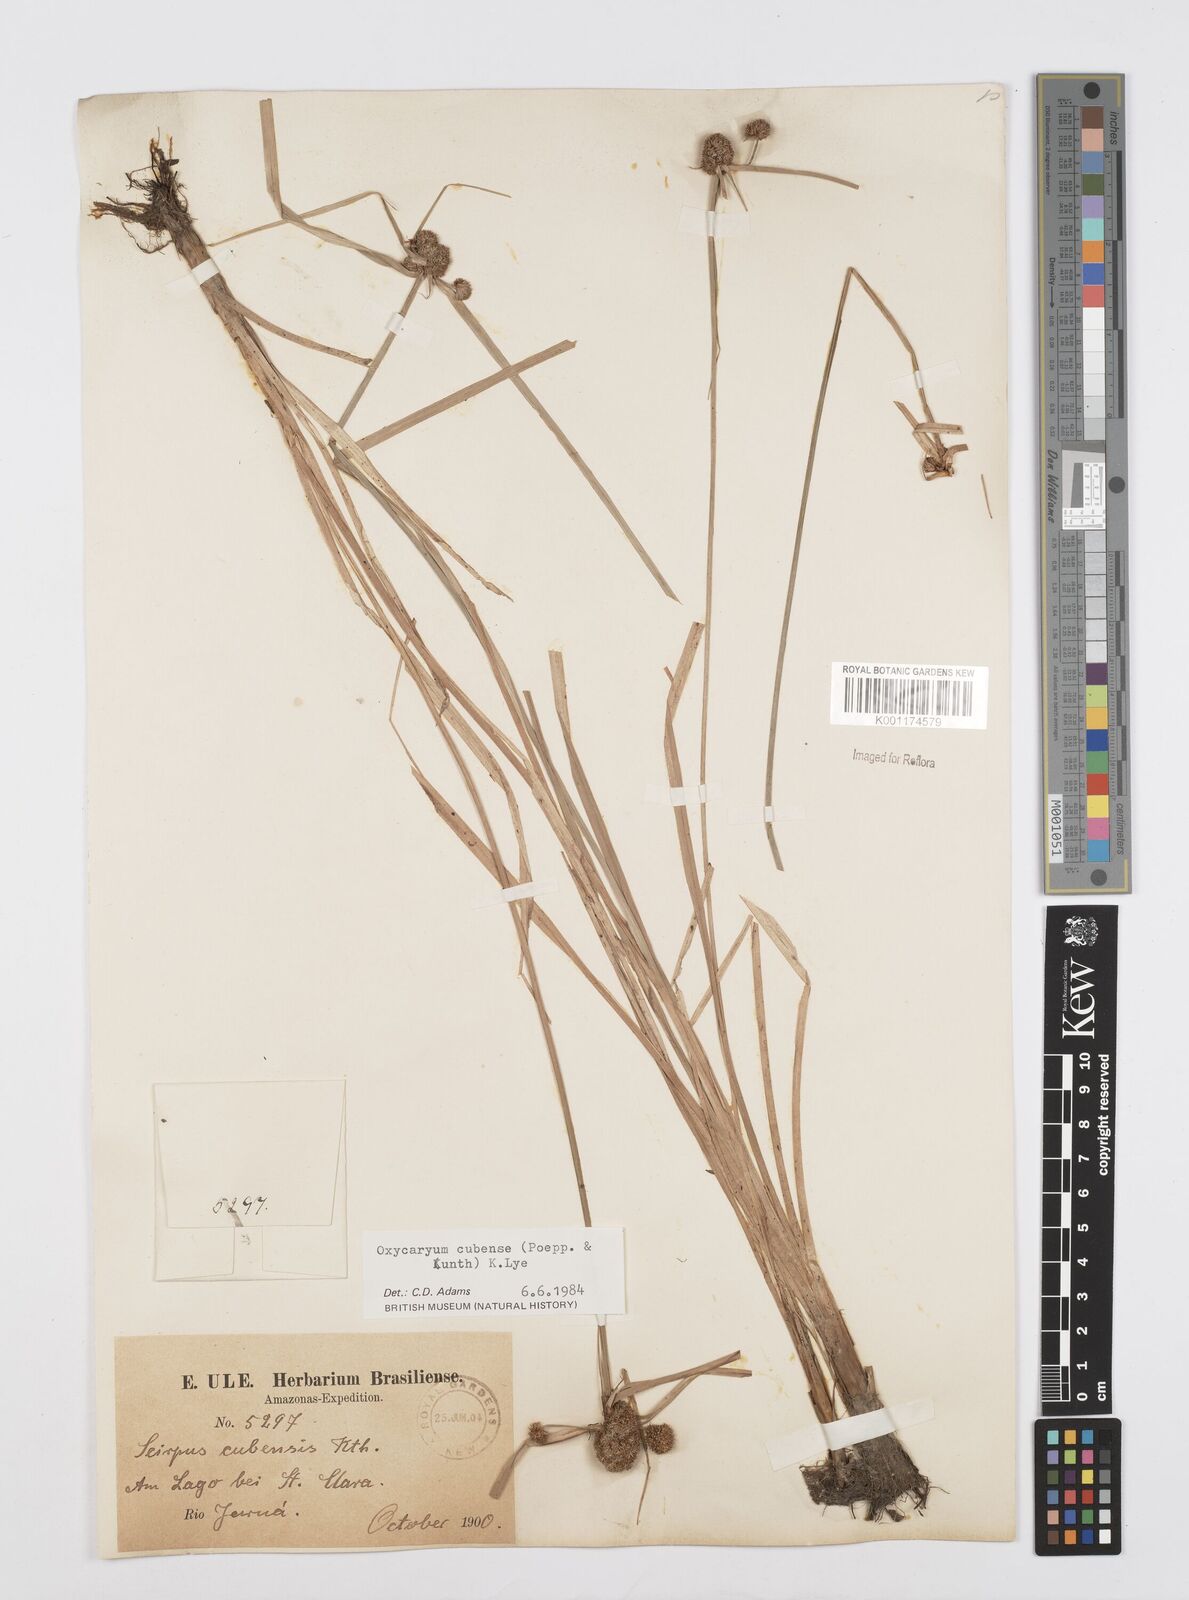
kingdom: Plantae
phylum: Tracheophyta
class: Liliopsida
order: Poales
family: Cyperaceae
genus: Cyperus
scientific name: Cyperus elegans
